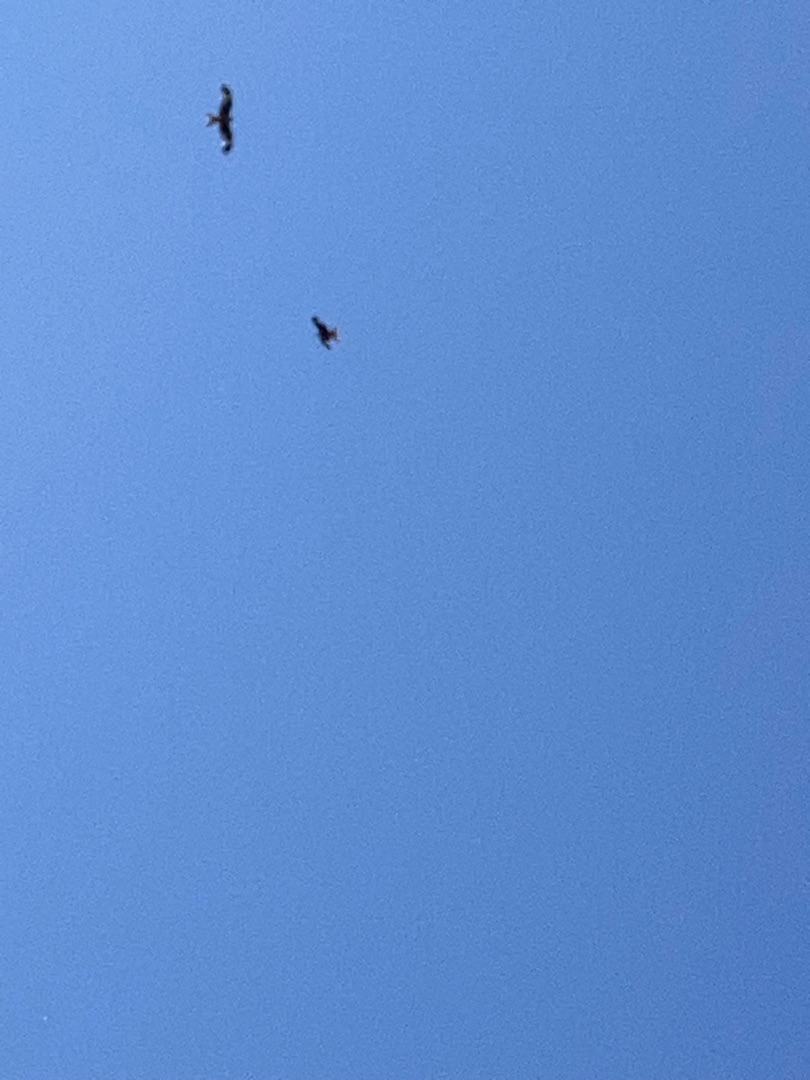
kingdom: Animalia
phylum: Chordata
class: Aves
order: Accipitriformes
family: Accipitridae
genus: Milvus
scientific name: Milvus milvus
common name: Rød glente
